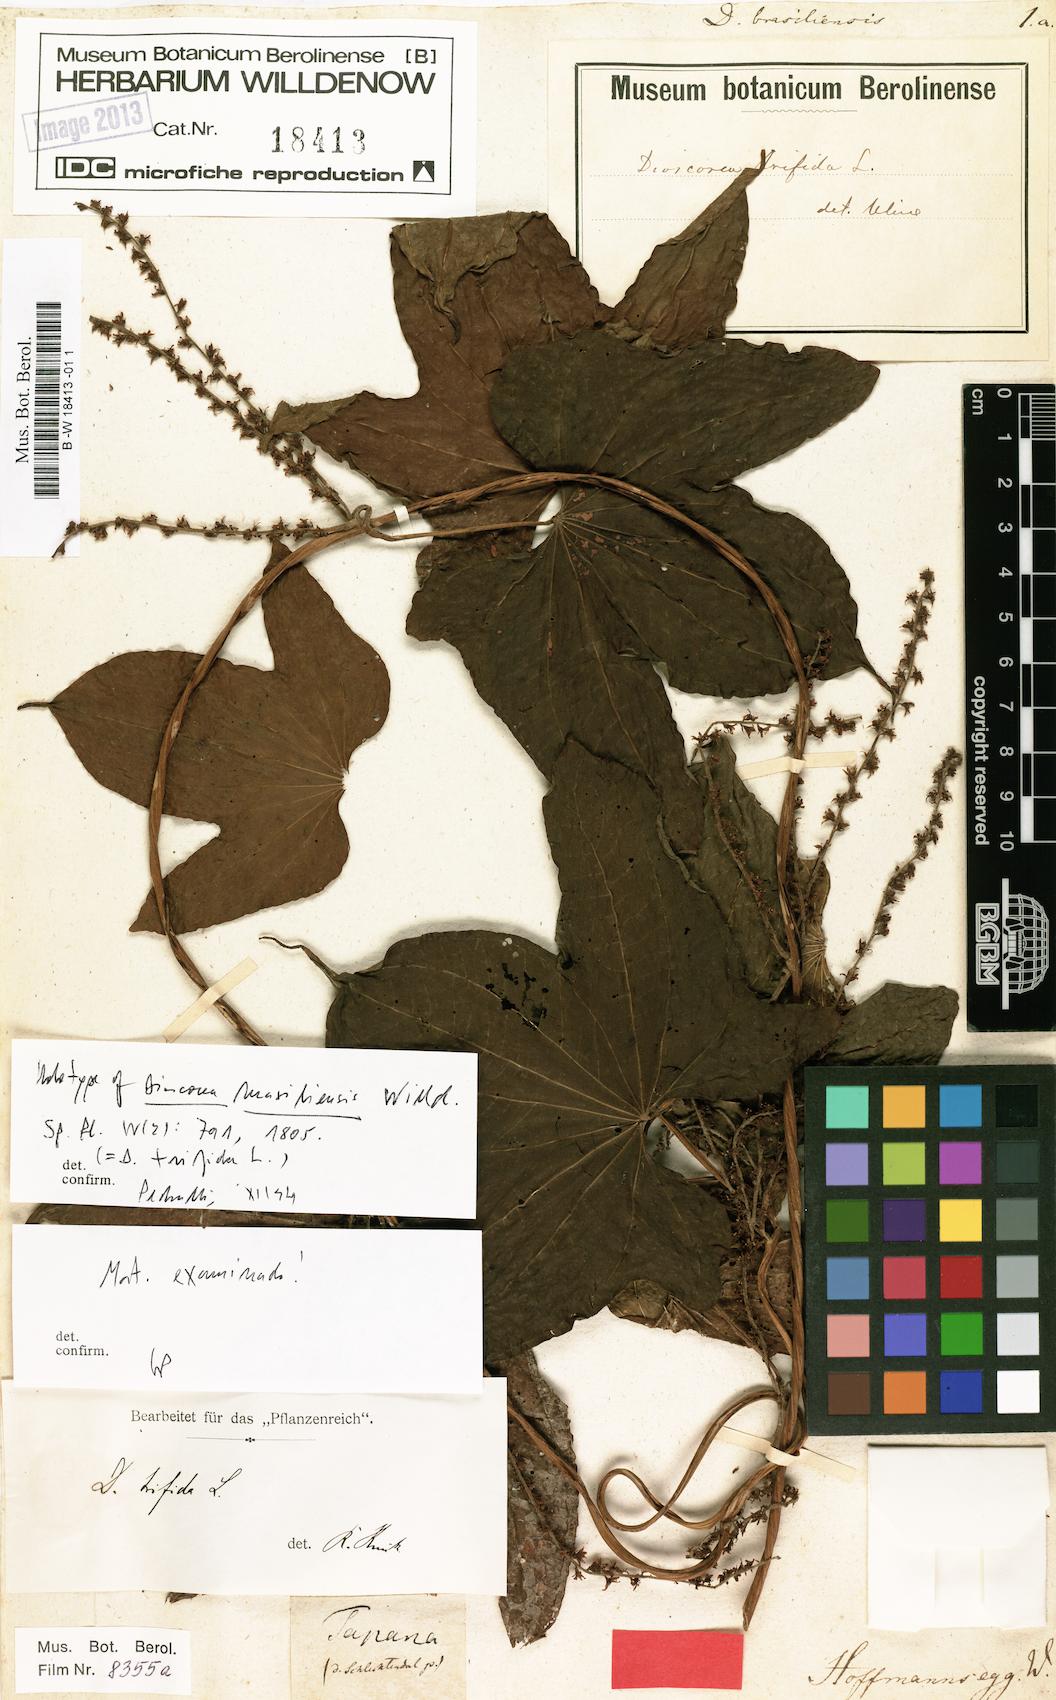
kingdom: Plantae
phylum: Tracheophyta
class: Liliopsida
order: Dioscoreales
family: Dioscoreaceae
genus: Dioscorea
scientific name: Dioscorea trifida
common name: Cush-cush
